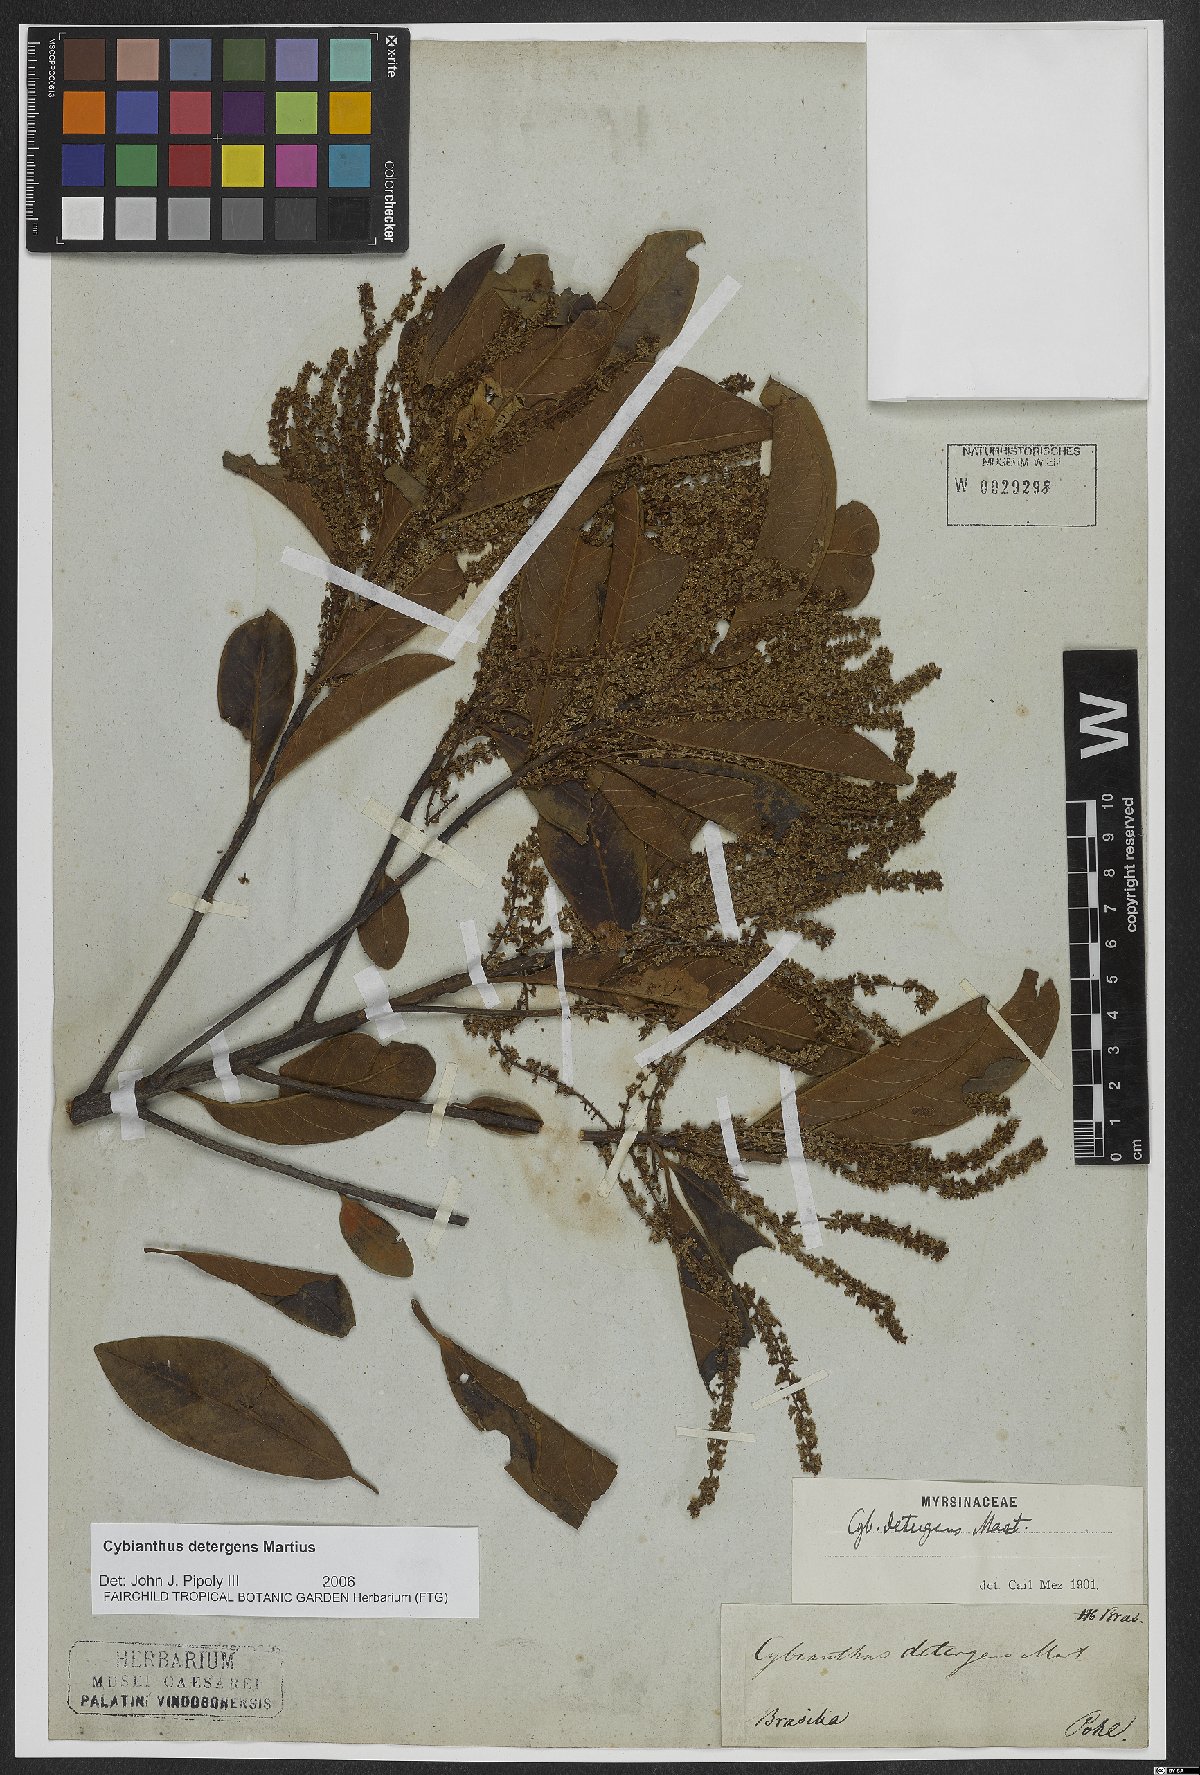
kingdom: Plantae
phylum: Tracheophyta
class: Magnoliopsida
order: Ericales
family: Primulaceae
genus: Cybianthus
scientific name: Cybianthus detergens
